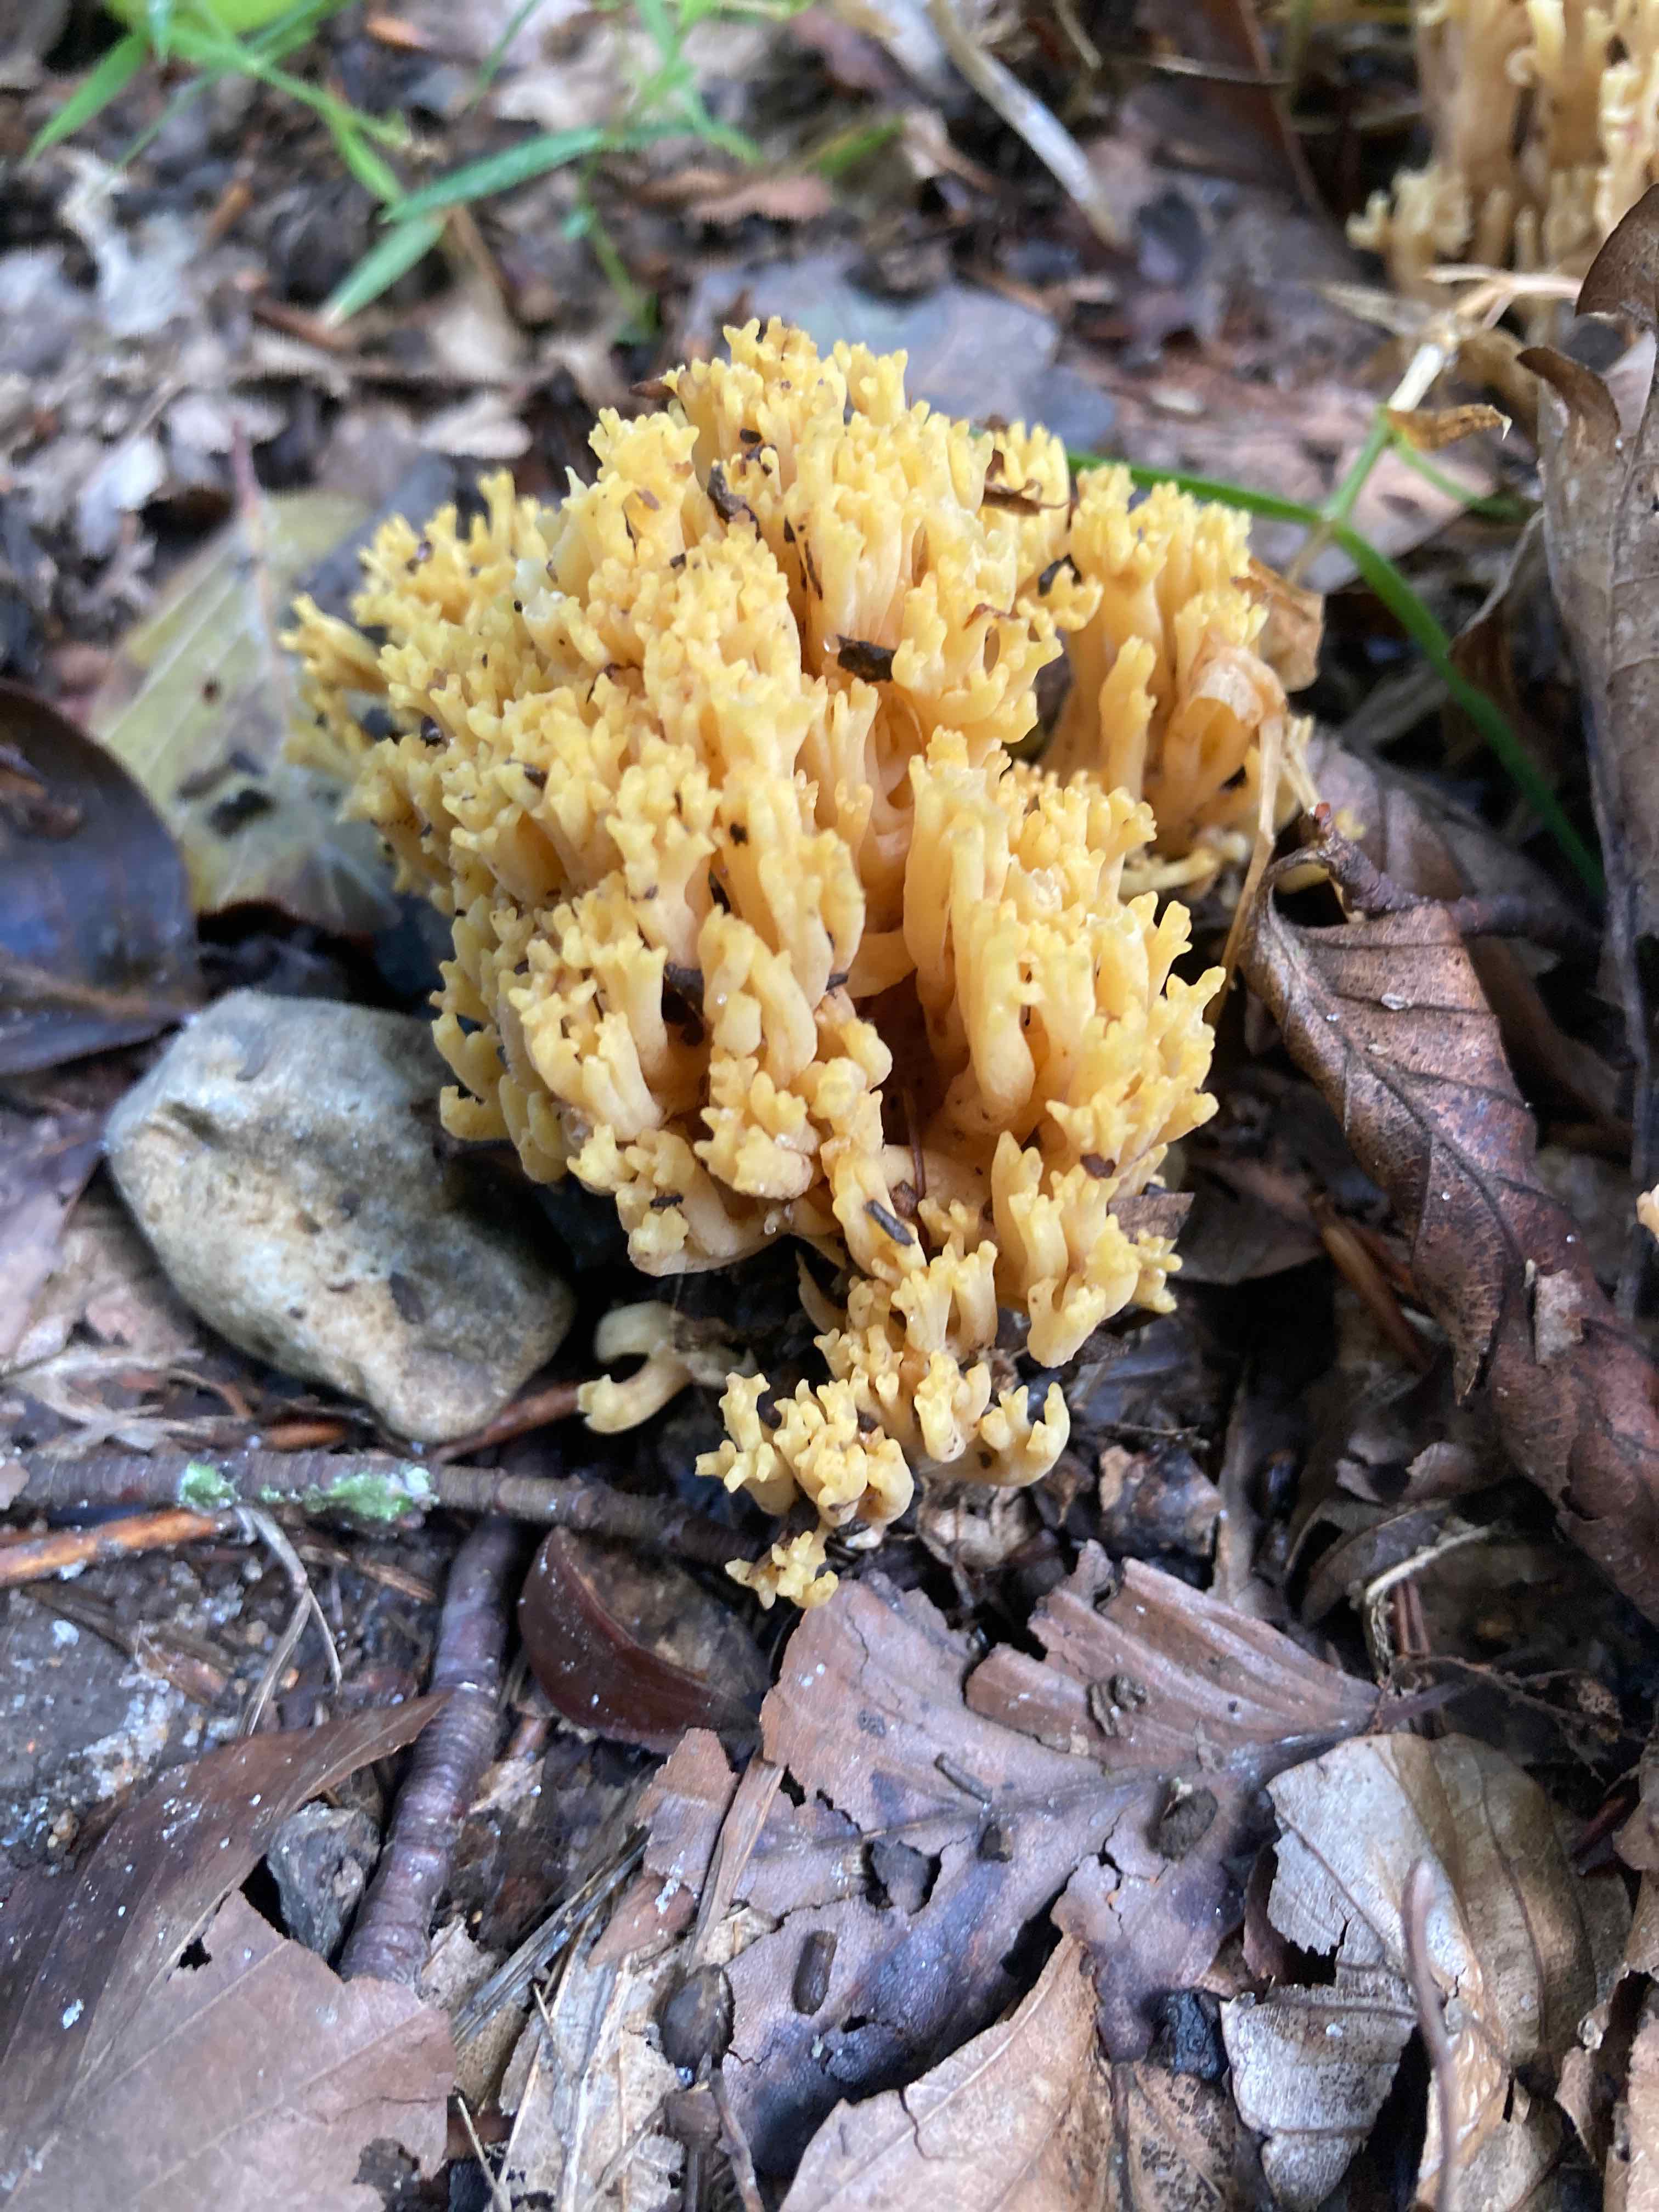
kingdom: Fungi
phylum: Basidiomycota
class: Agaricomycetes
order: Gomphales
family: Gomphaceae
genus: Ramaria
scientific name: Ramaria krieglsteineri
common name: smalsporet koralsvamp
